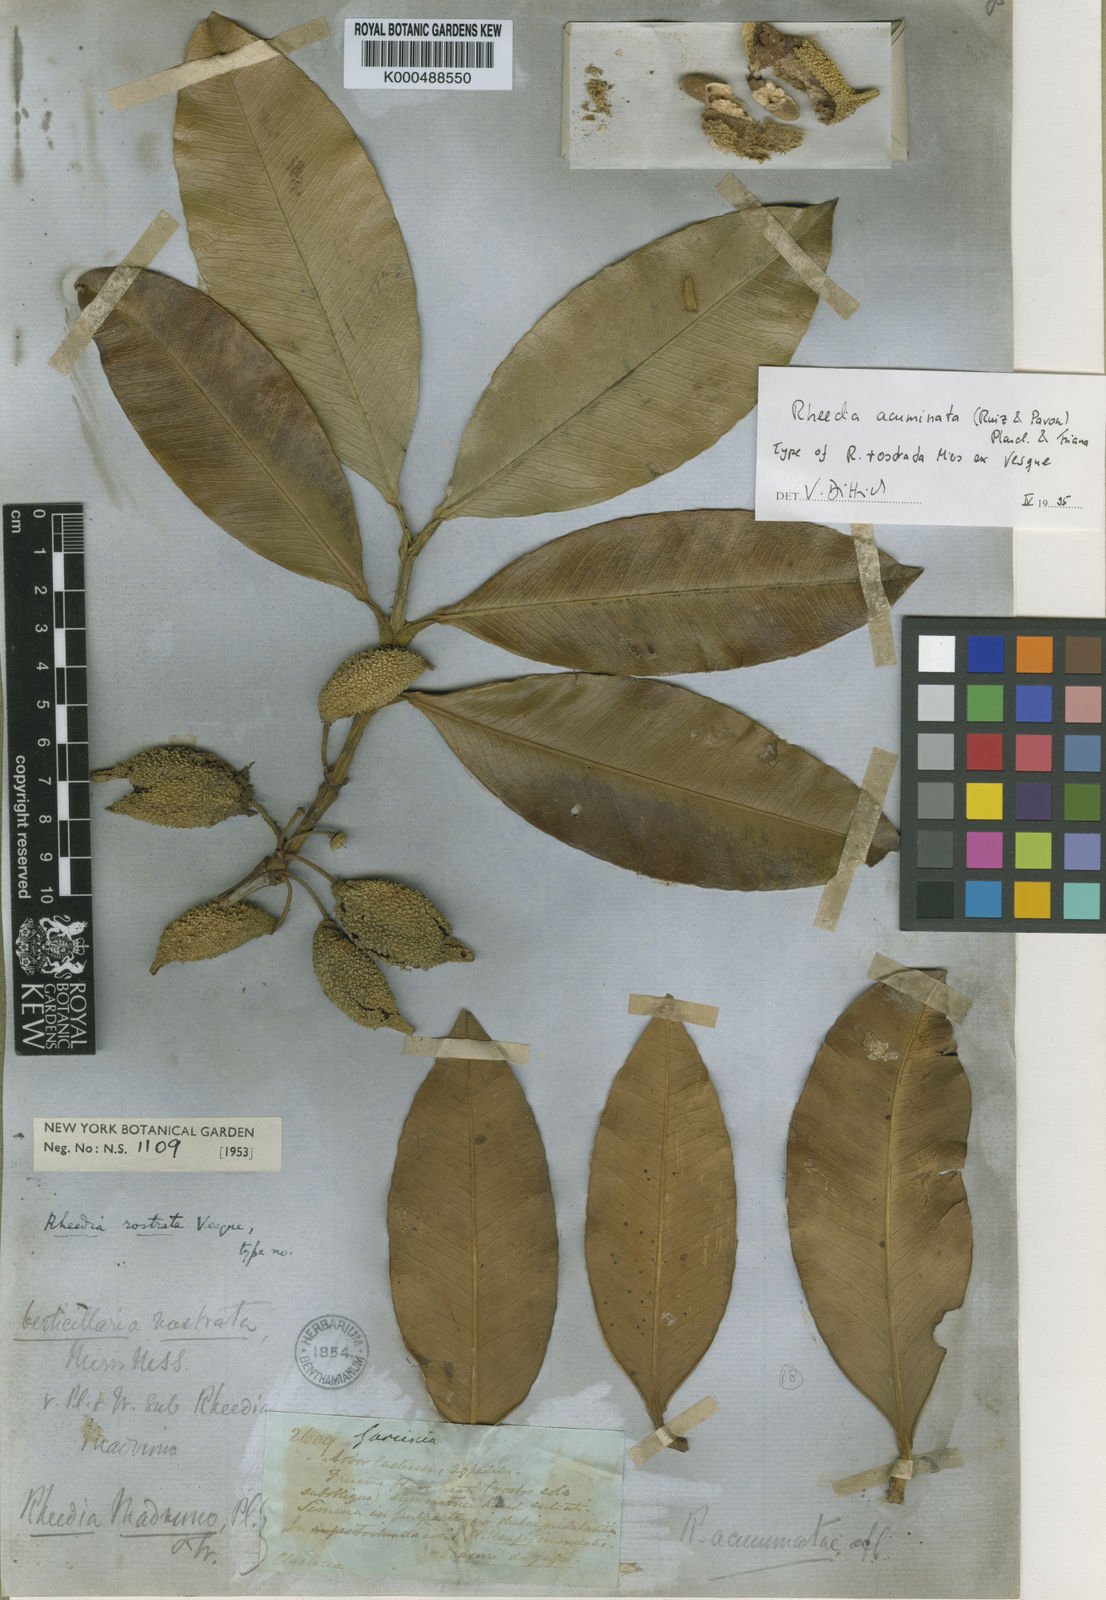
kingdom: Plantae
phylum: Tracheophyta
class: Magnoliopsida
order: Malpighiales
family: Clusiaceae
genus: Garcinia
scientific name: Garcinia
